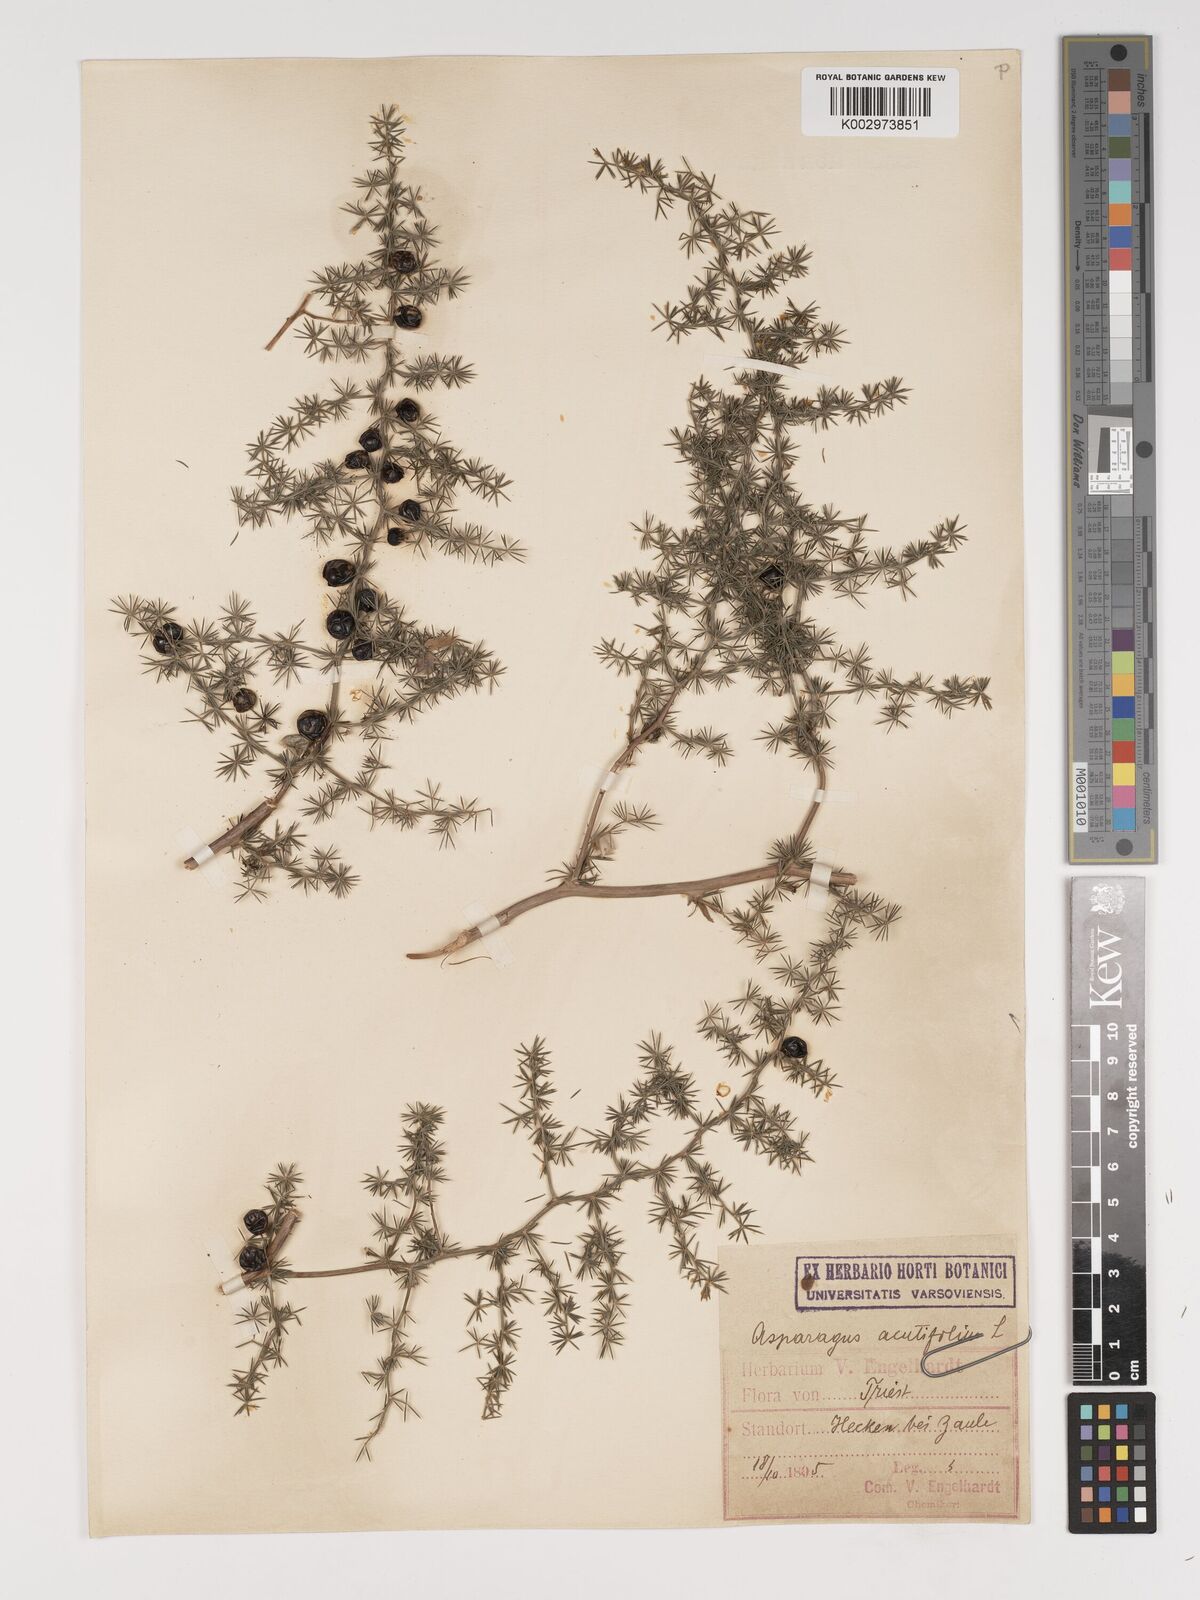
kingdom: Plantae
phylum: Tracheophyta
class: Liliopsida
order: Asparagales
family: Asparagaceae
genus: Asparagus
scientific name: Asparagus acutifolius
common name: Wild asparagus
